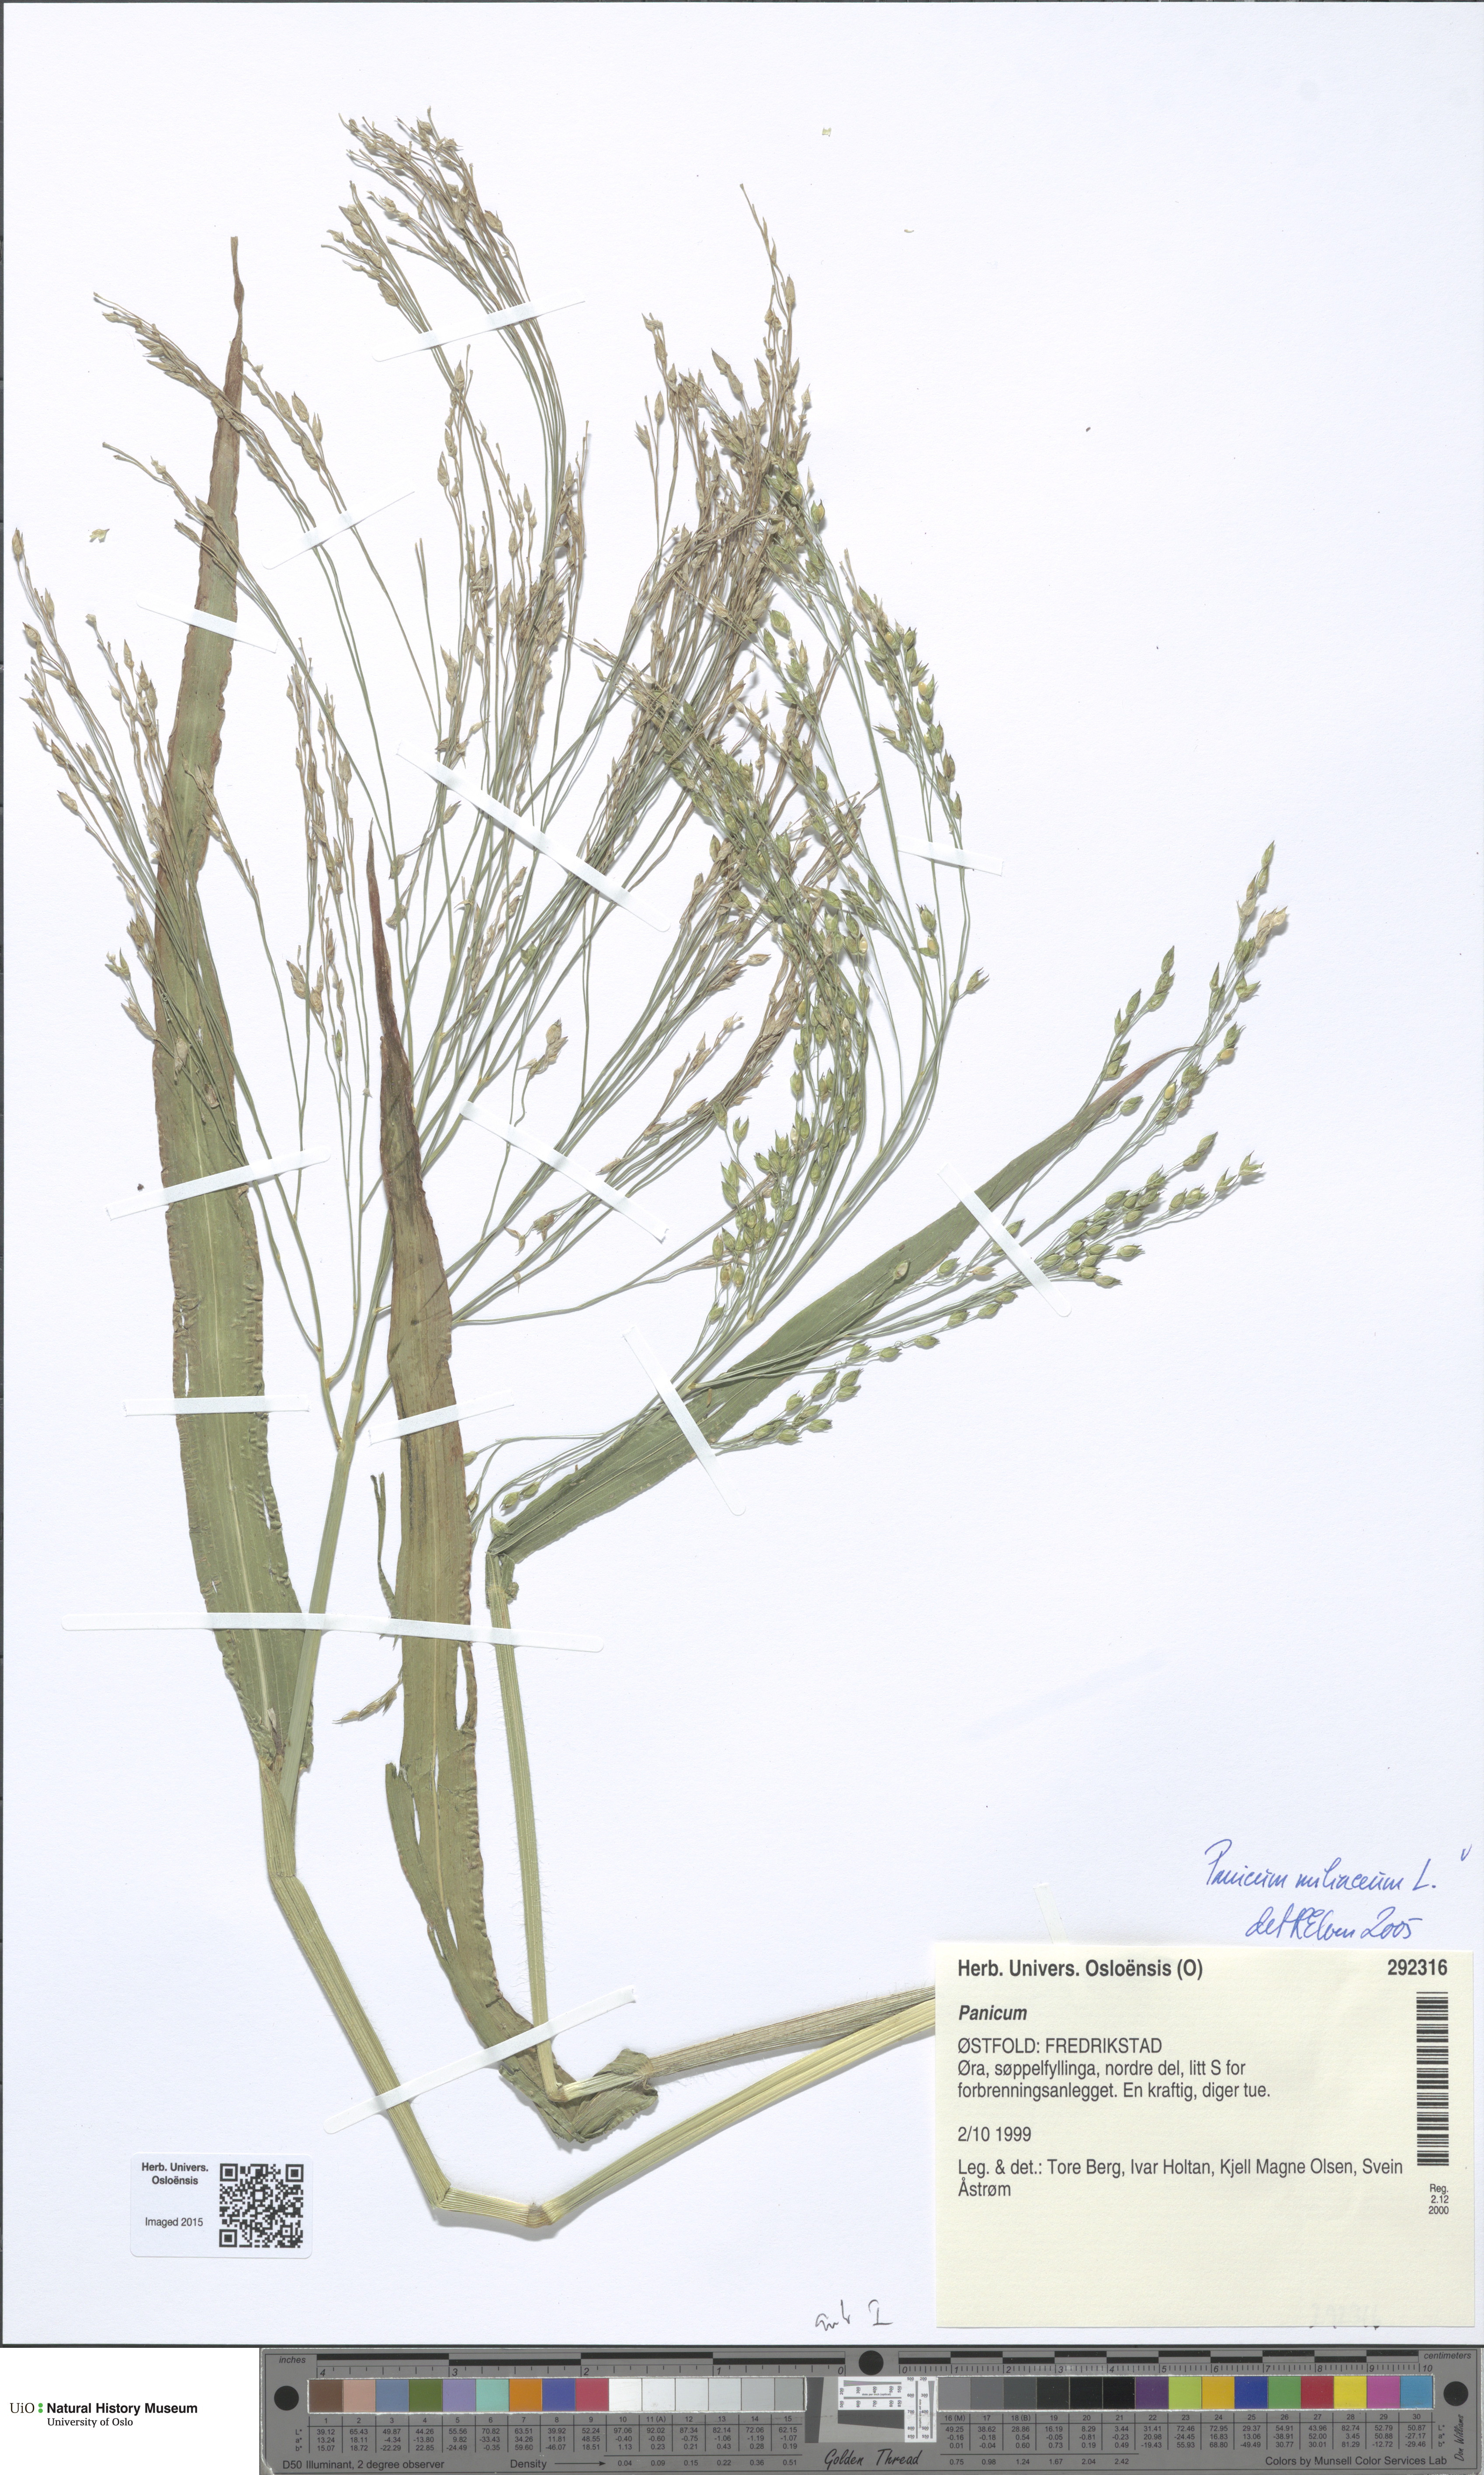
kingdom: Plantae
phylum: Tracheophyta
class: Liliopsida
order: Poales
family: Poaceae
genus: Panicum
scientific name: Panicum miliaceum
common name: Common millet
